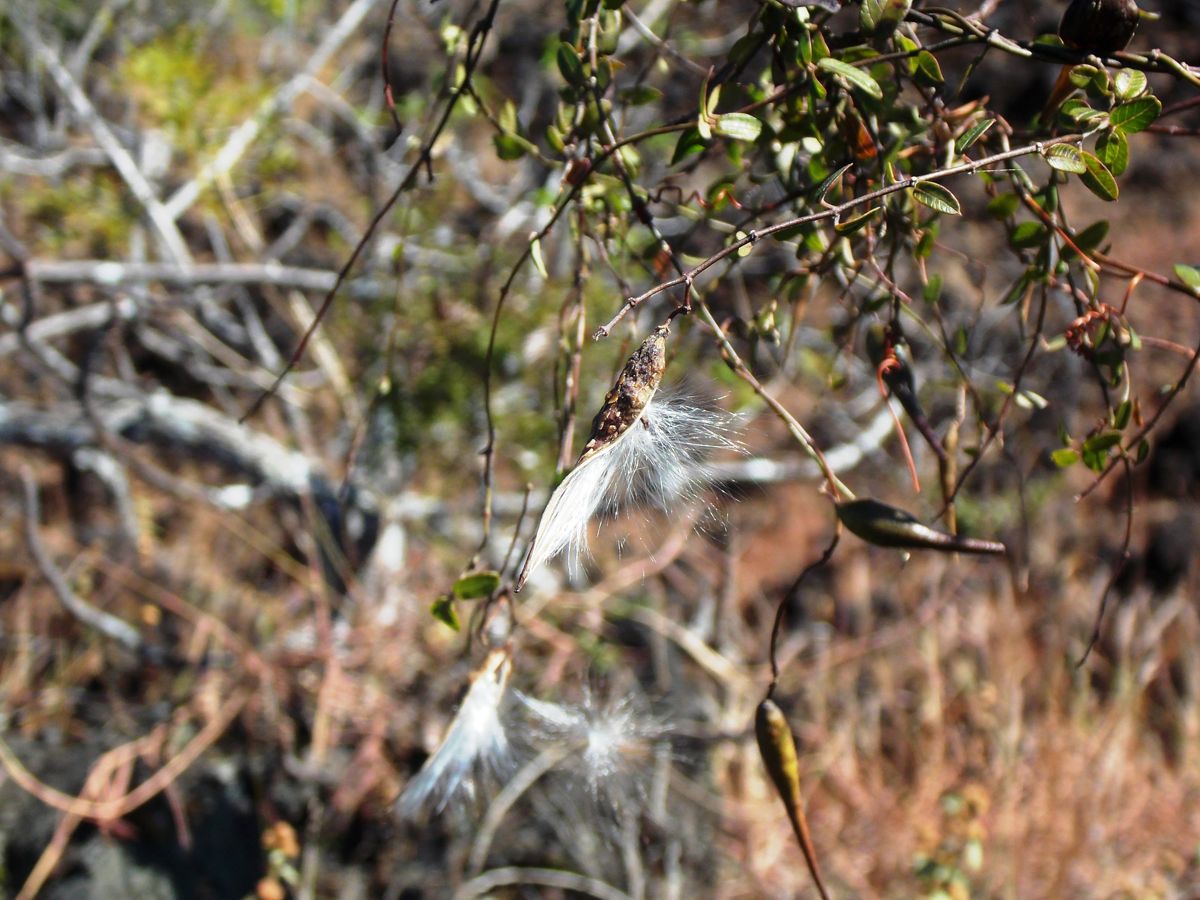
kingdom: Plantae
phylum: Tracheophyta
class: Magnoliopsida
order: Gentianales
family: Apocynaceae
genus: Metastelma
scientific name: Metastelma schlechtendalii
